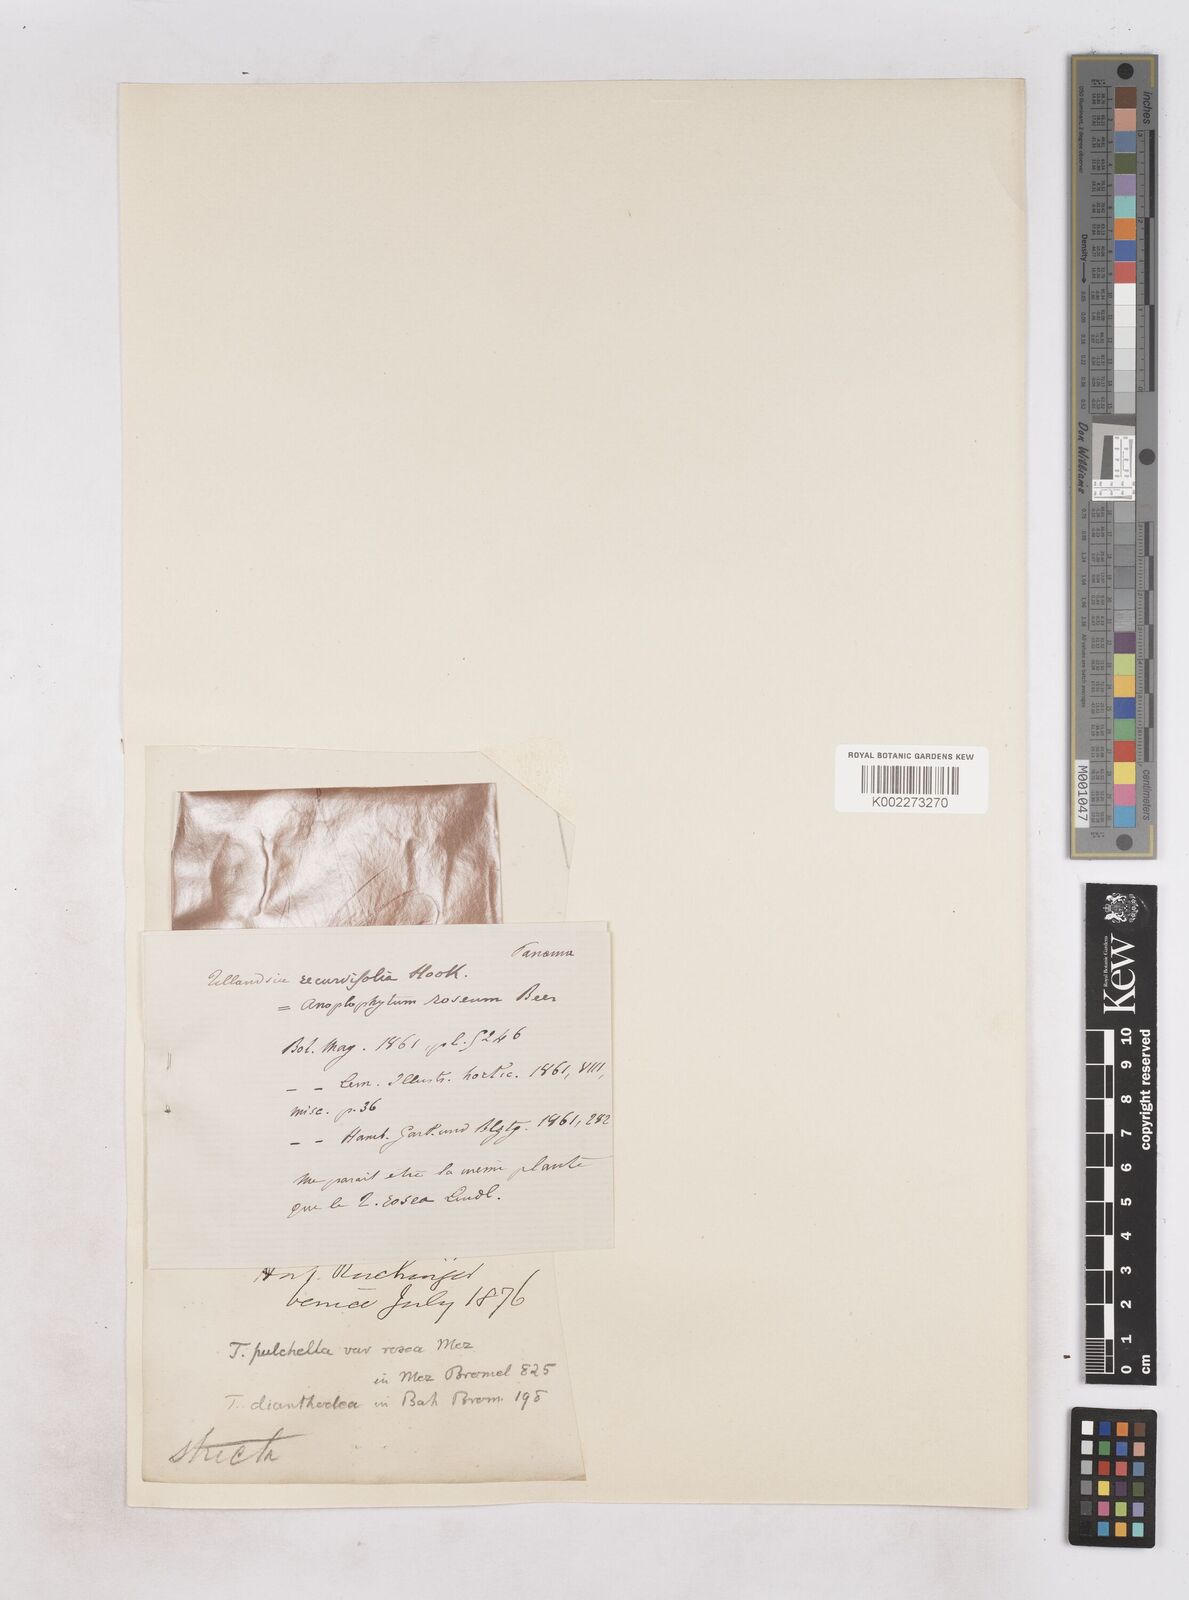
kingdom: Plantae
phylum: Tracheophyta
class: Liliopsida
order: Poales
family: Bromeliaceae
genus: Tillandsia
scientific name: Tillandsia
